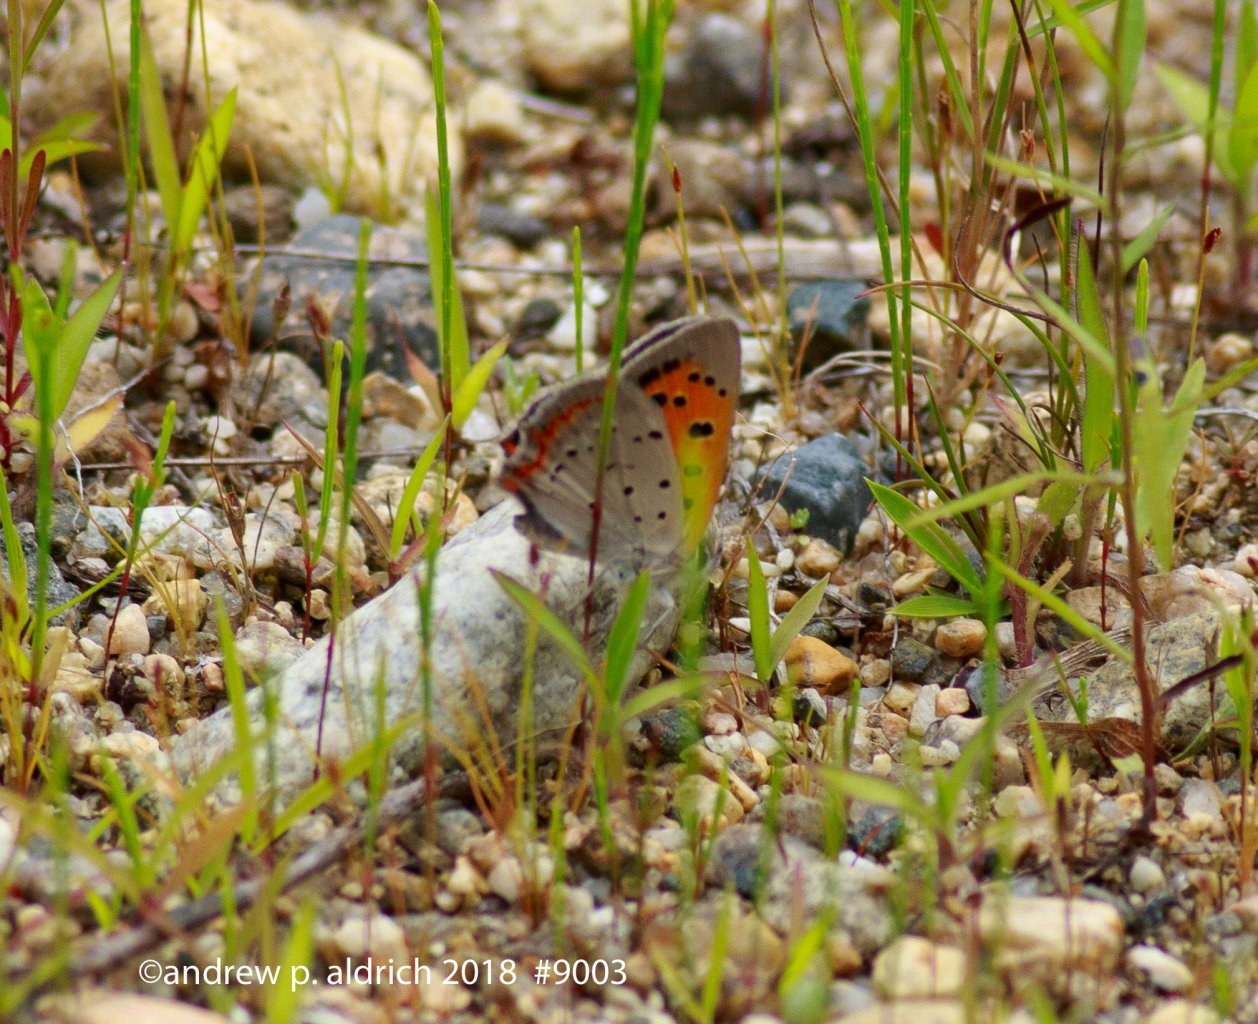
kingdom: Animalia
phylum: Arthropoda
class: Insecta
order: Lepidoptera
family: Lycaenidae
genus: Lycaena
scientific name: Lycaena phlaeas
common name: American Copper
